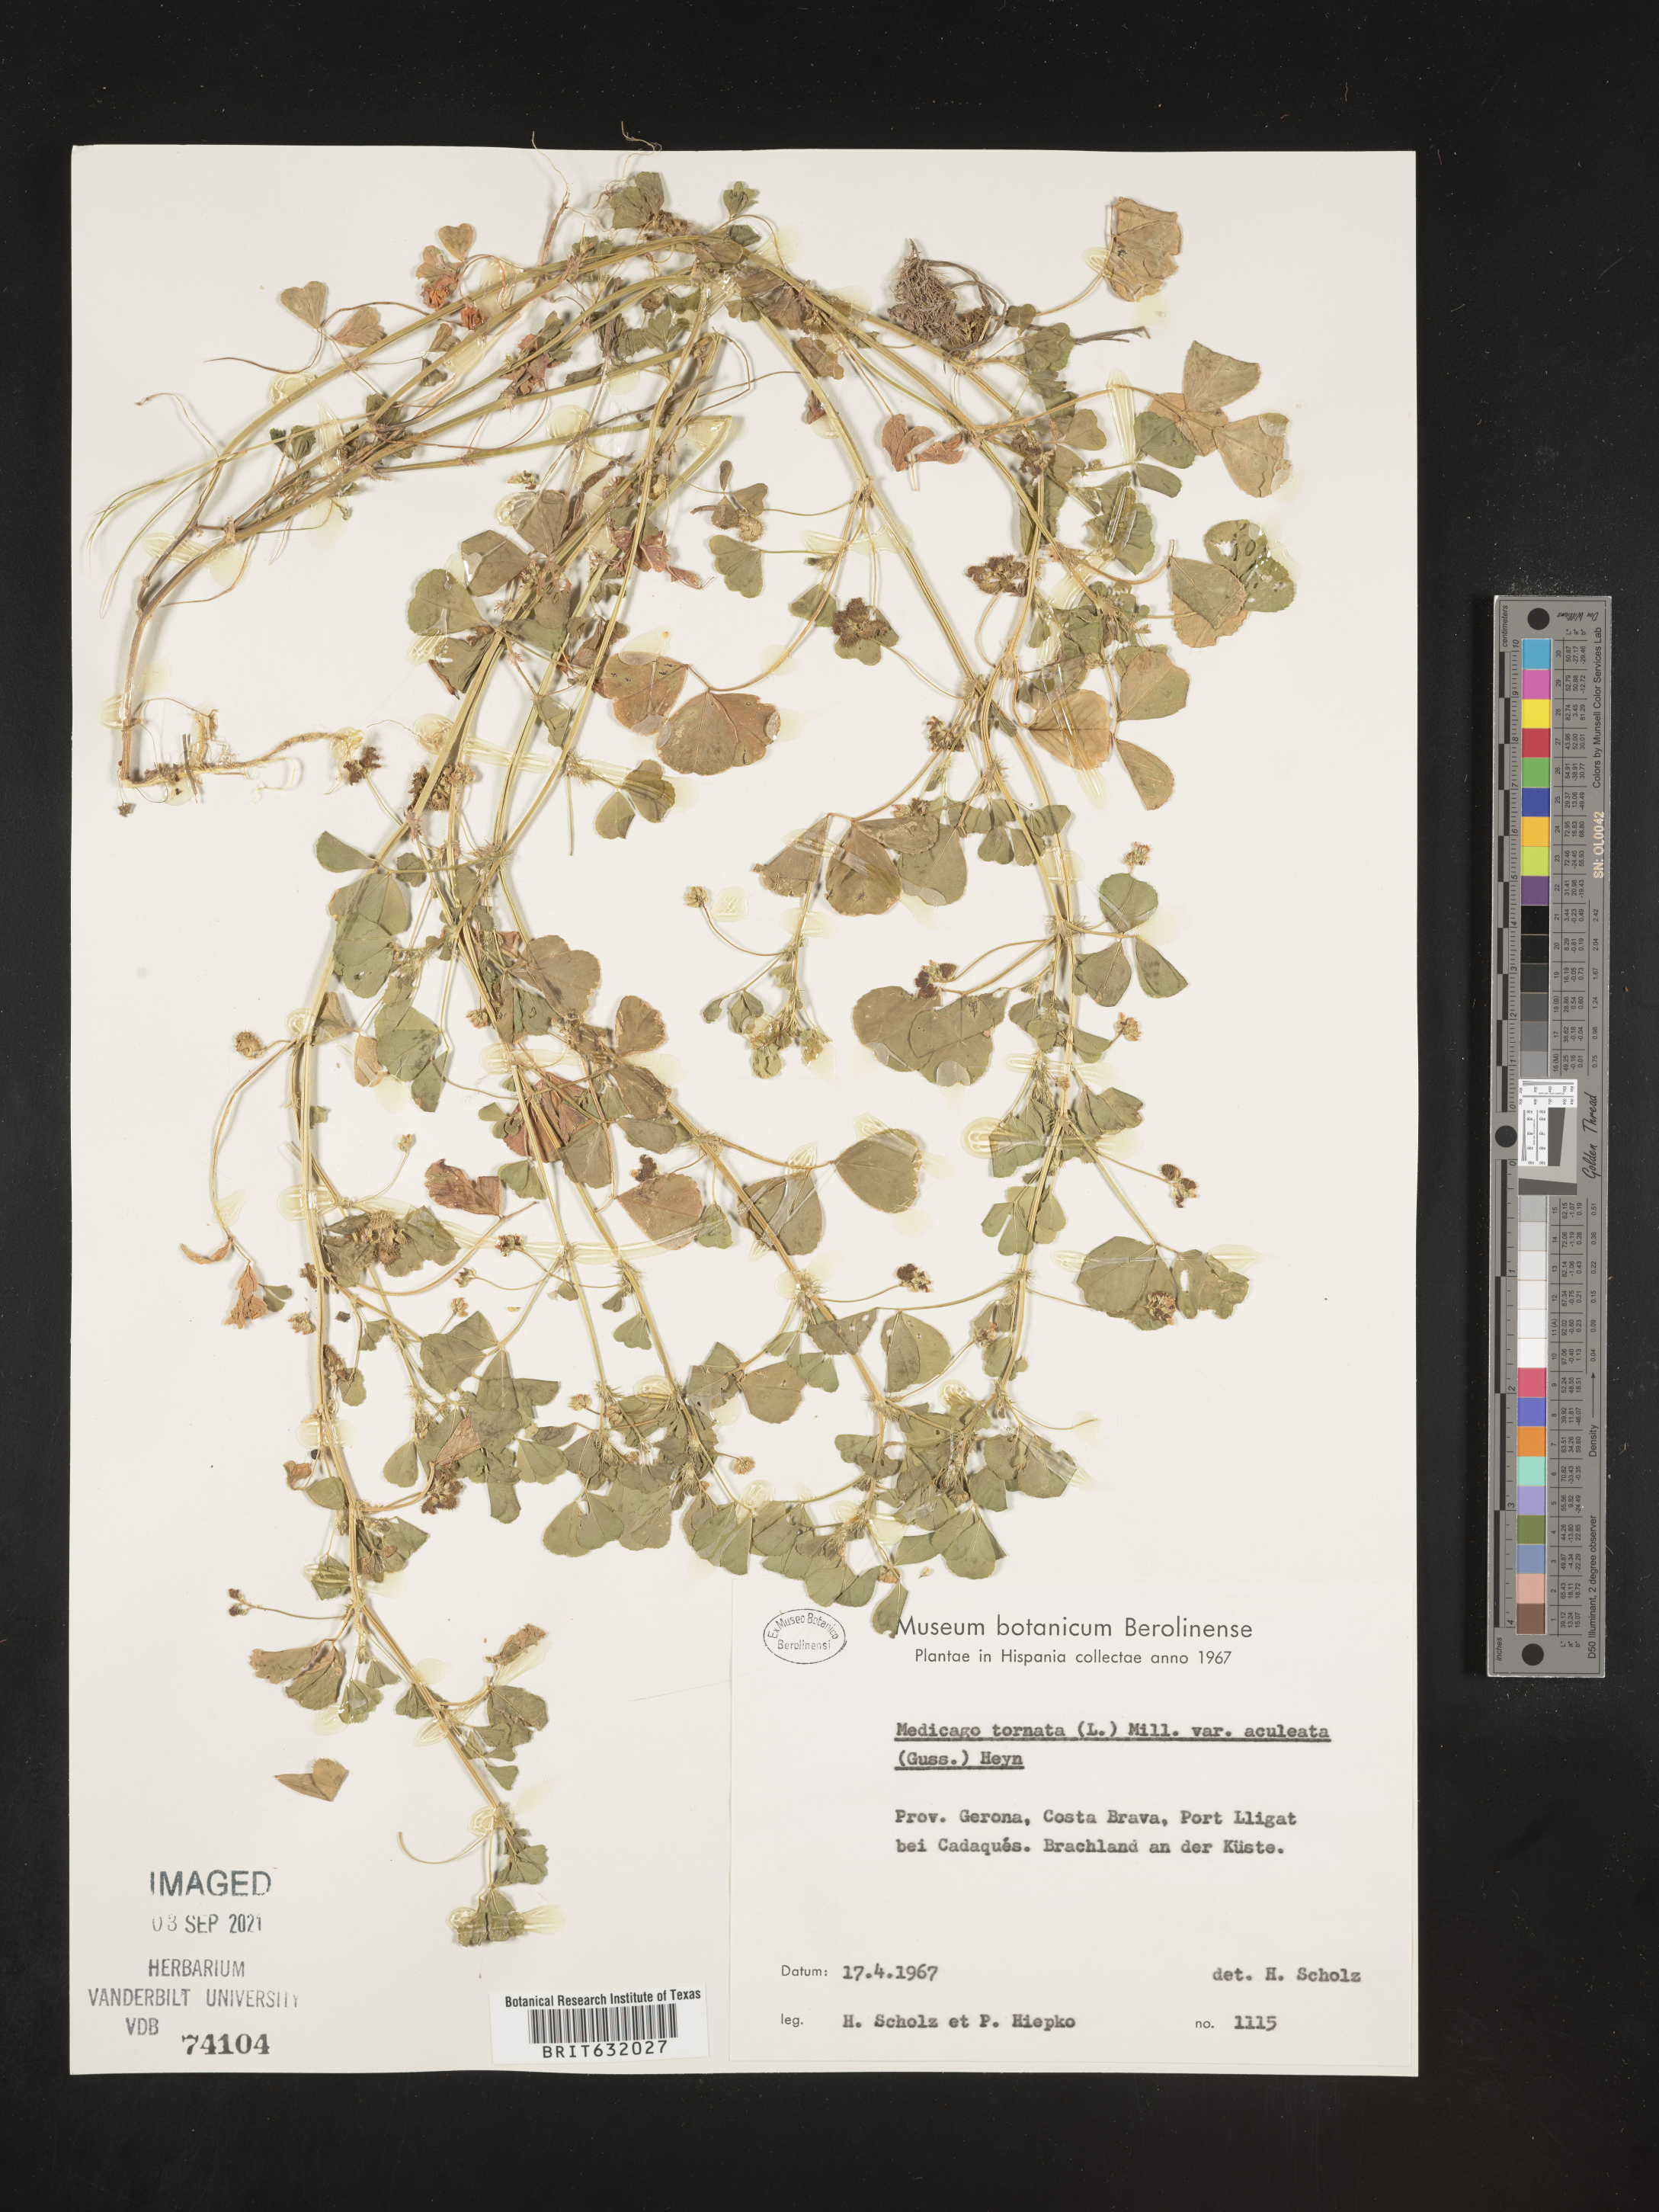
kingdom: Plantae
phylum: Tracheophyta
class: Magnoliopsida
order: Fabales
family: Fabaceae
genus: Medicago
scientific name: Medicago
